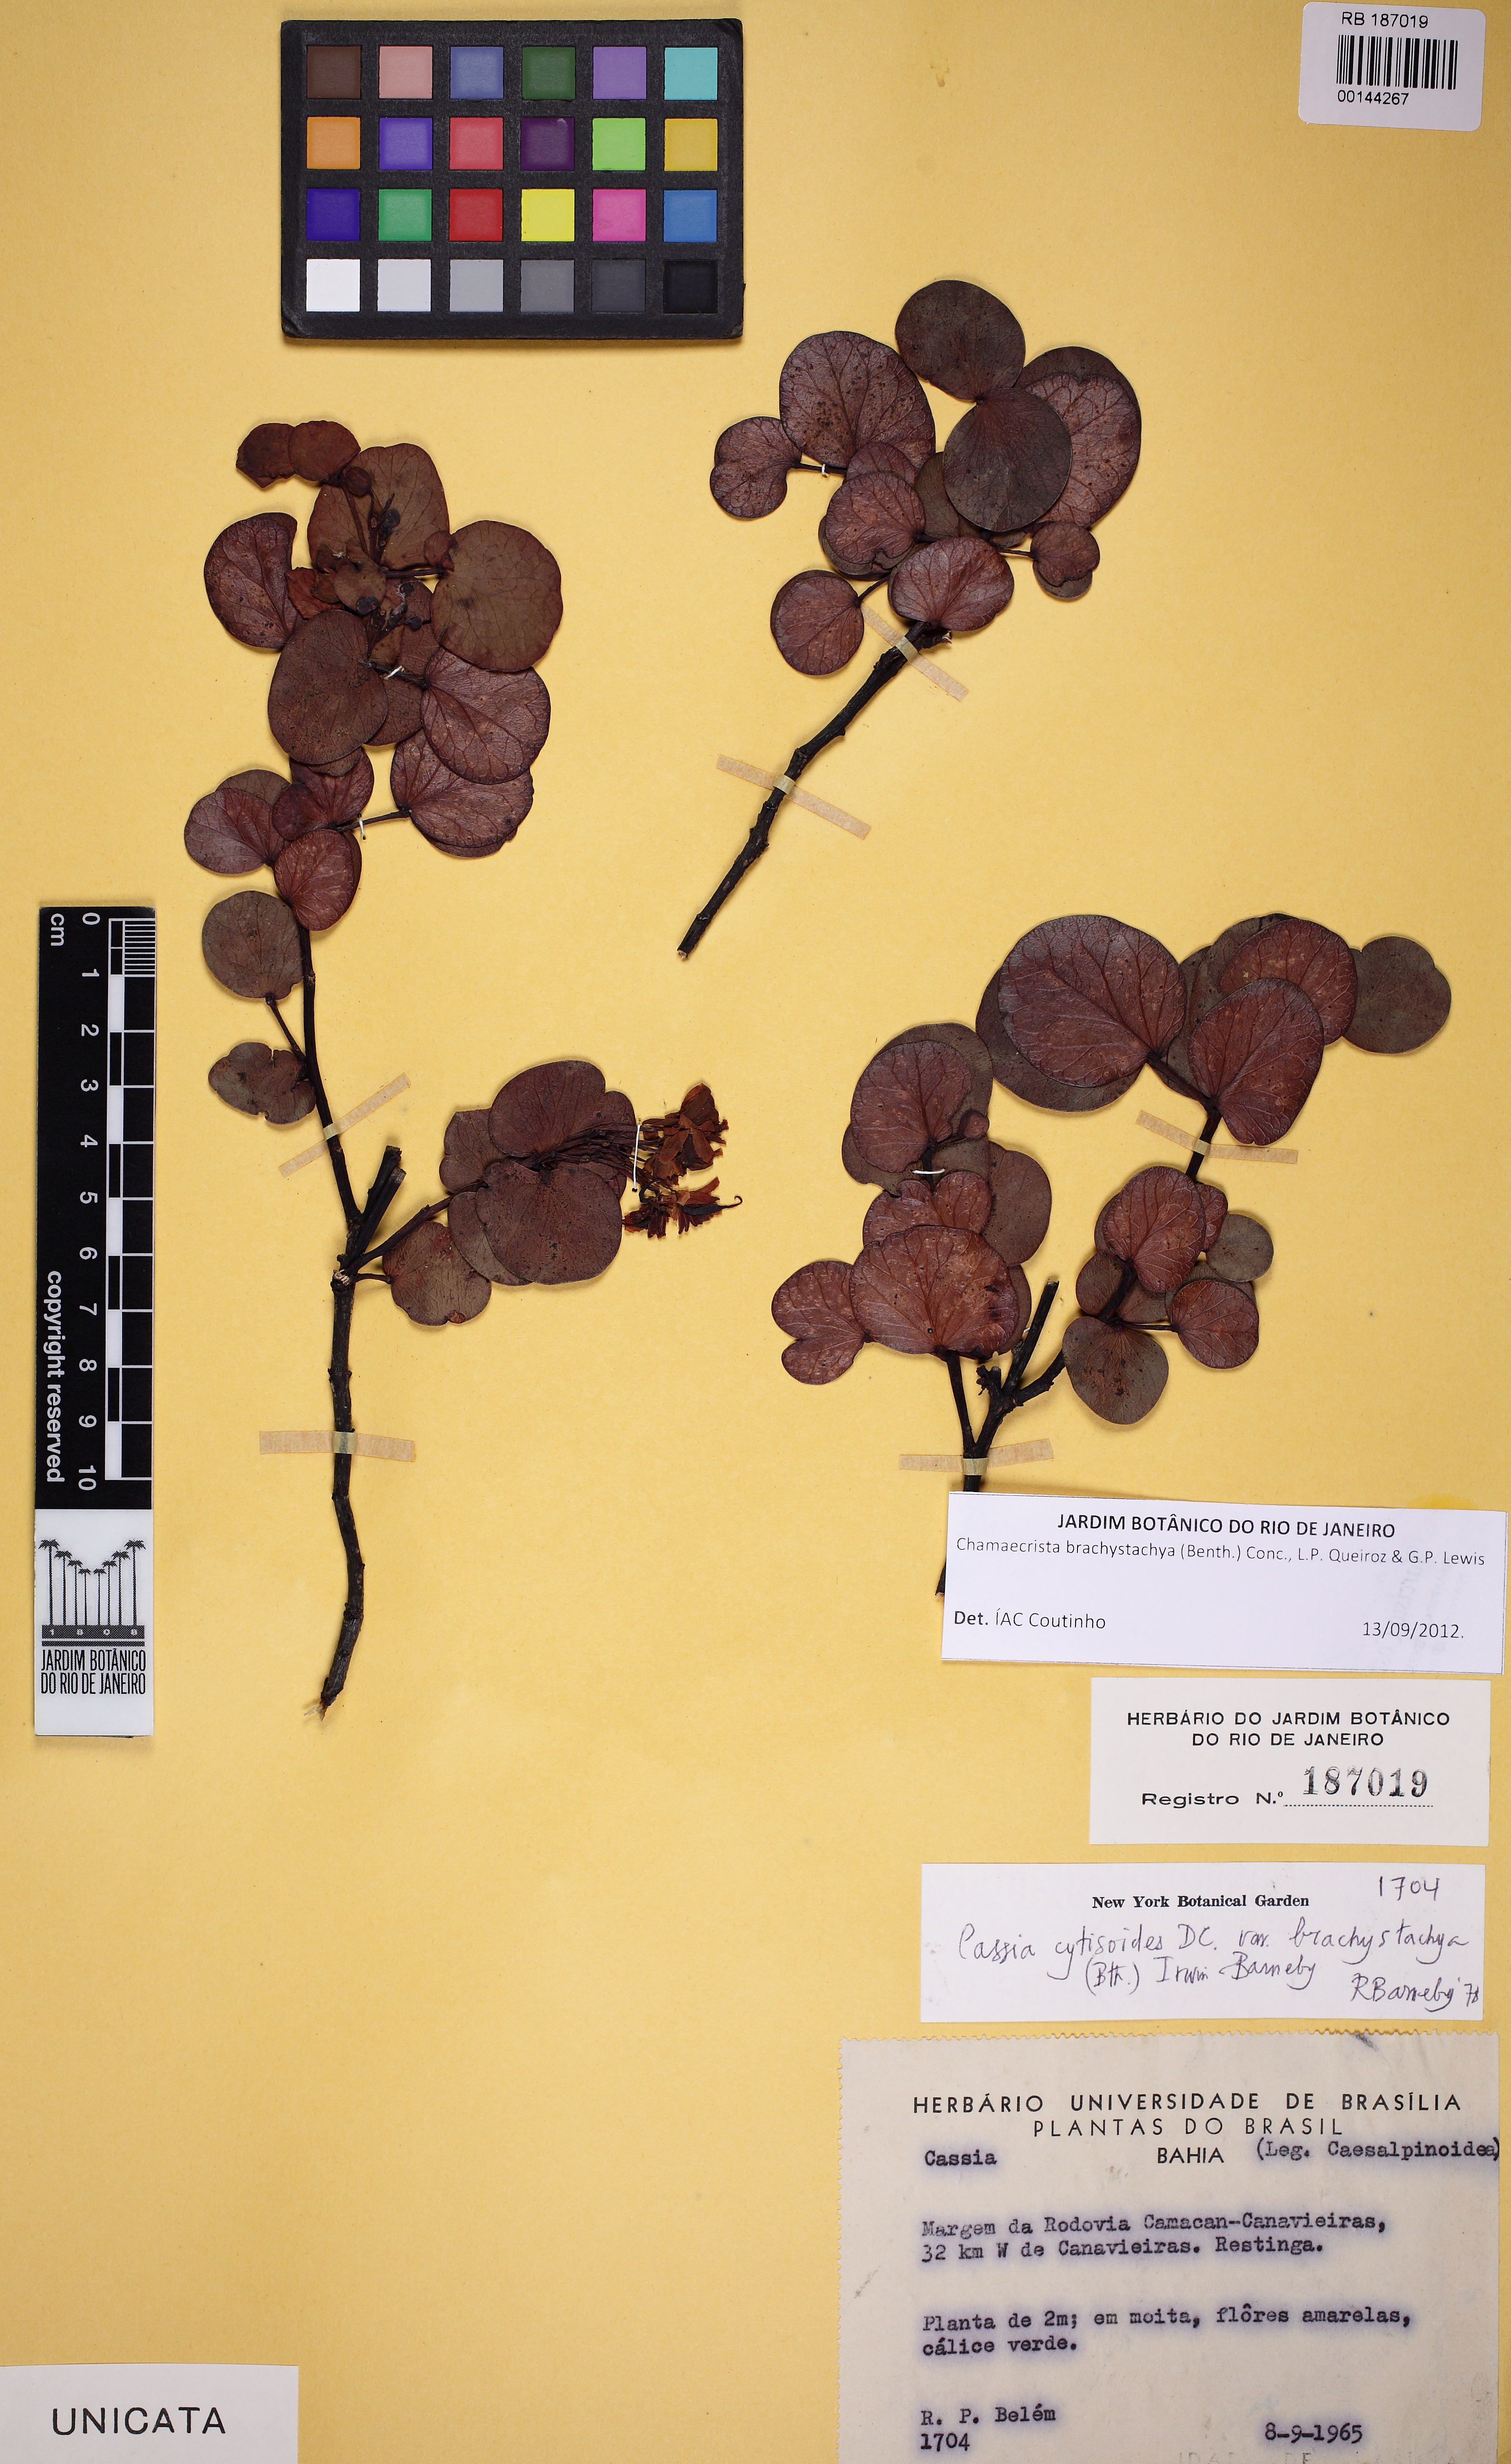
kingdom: Plantae
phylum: Tracheophyta
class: Magnoliopsida
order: Fabales
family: Fabaceae
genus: Chamaecrista
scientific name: Chamaecrista brachystachya
